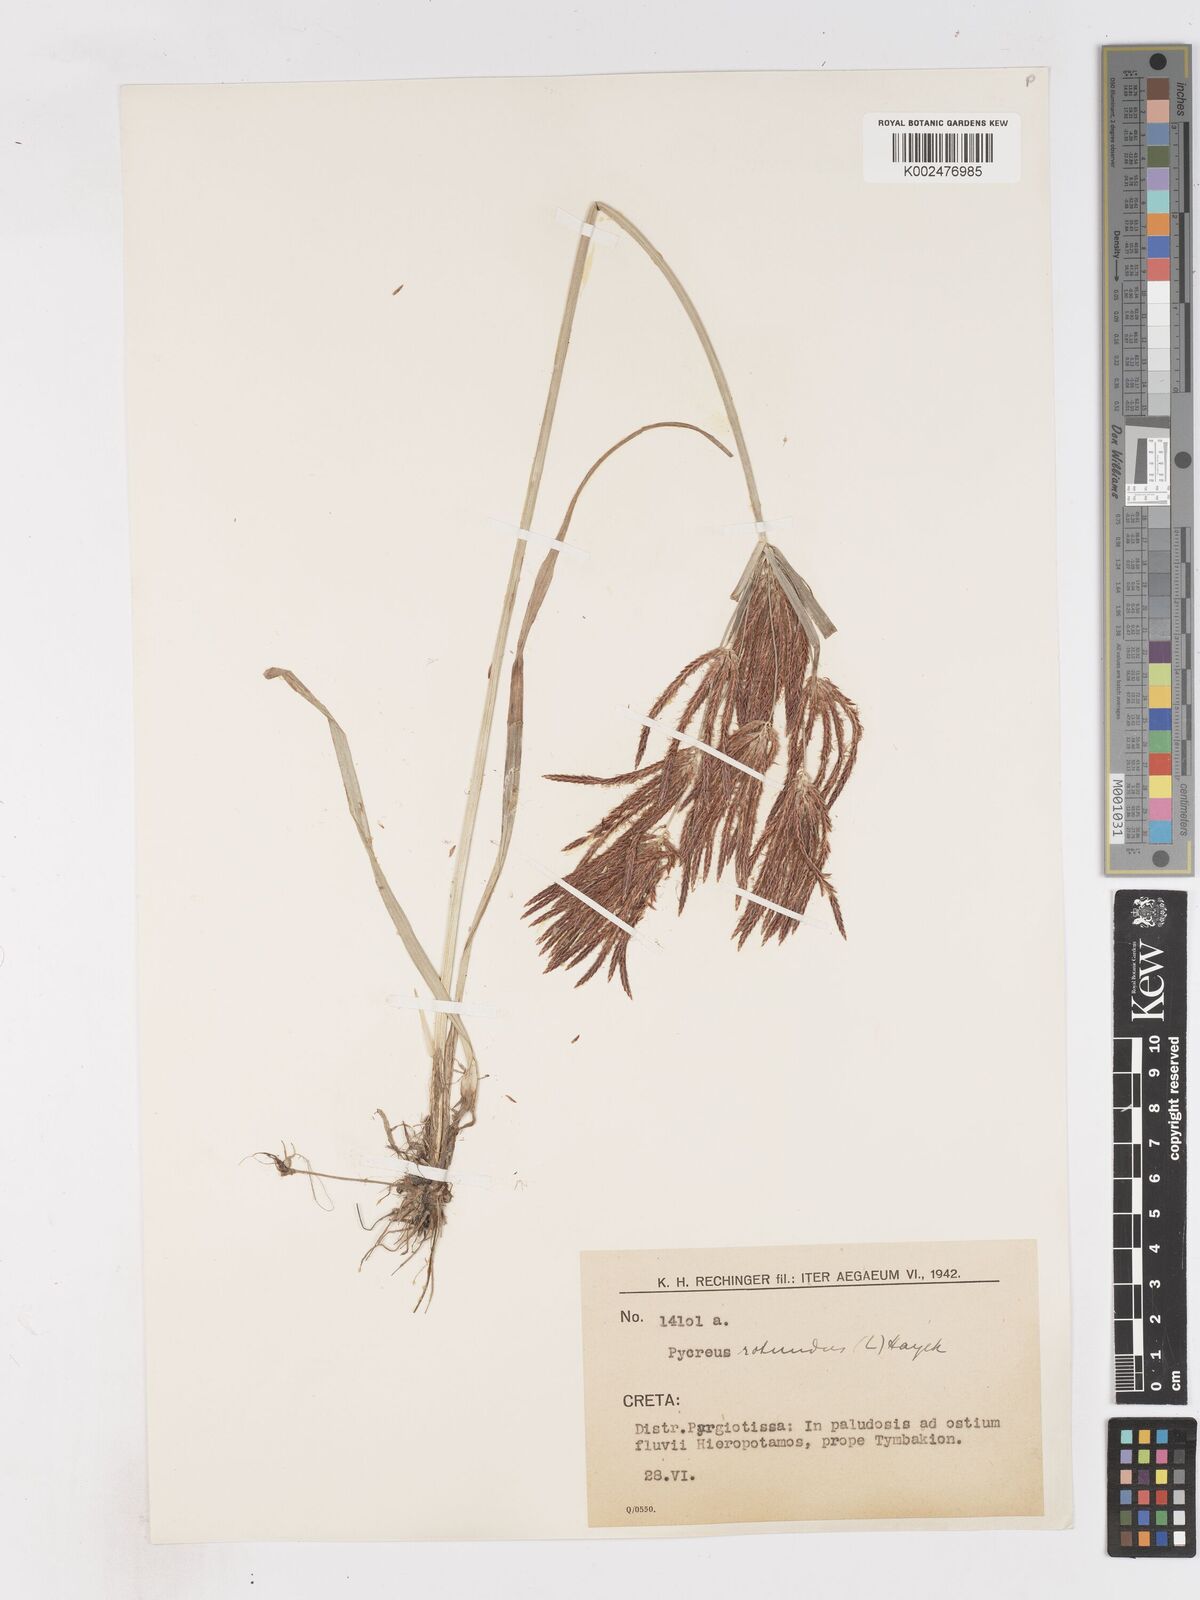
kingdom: Plantae
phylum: Tracheophyta
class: Liliopsida
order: Poales
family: Cyperaceae
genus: Cyperus
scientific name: Cyperus rotundus
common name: Nutgrass
